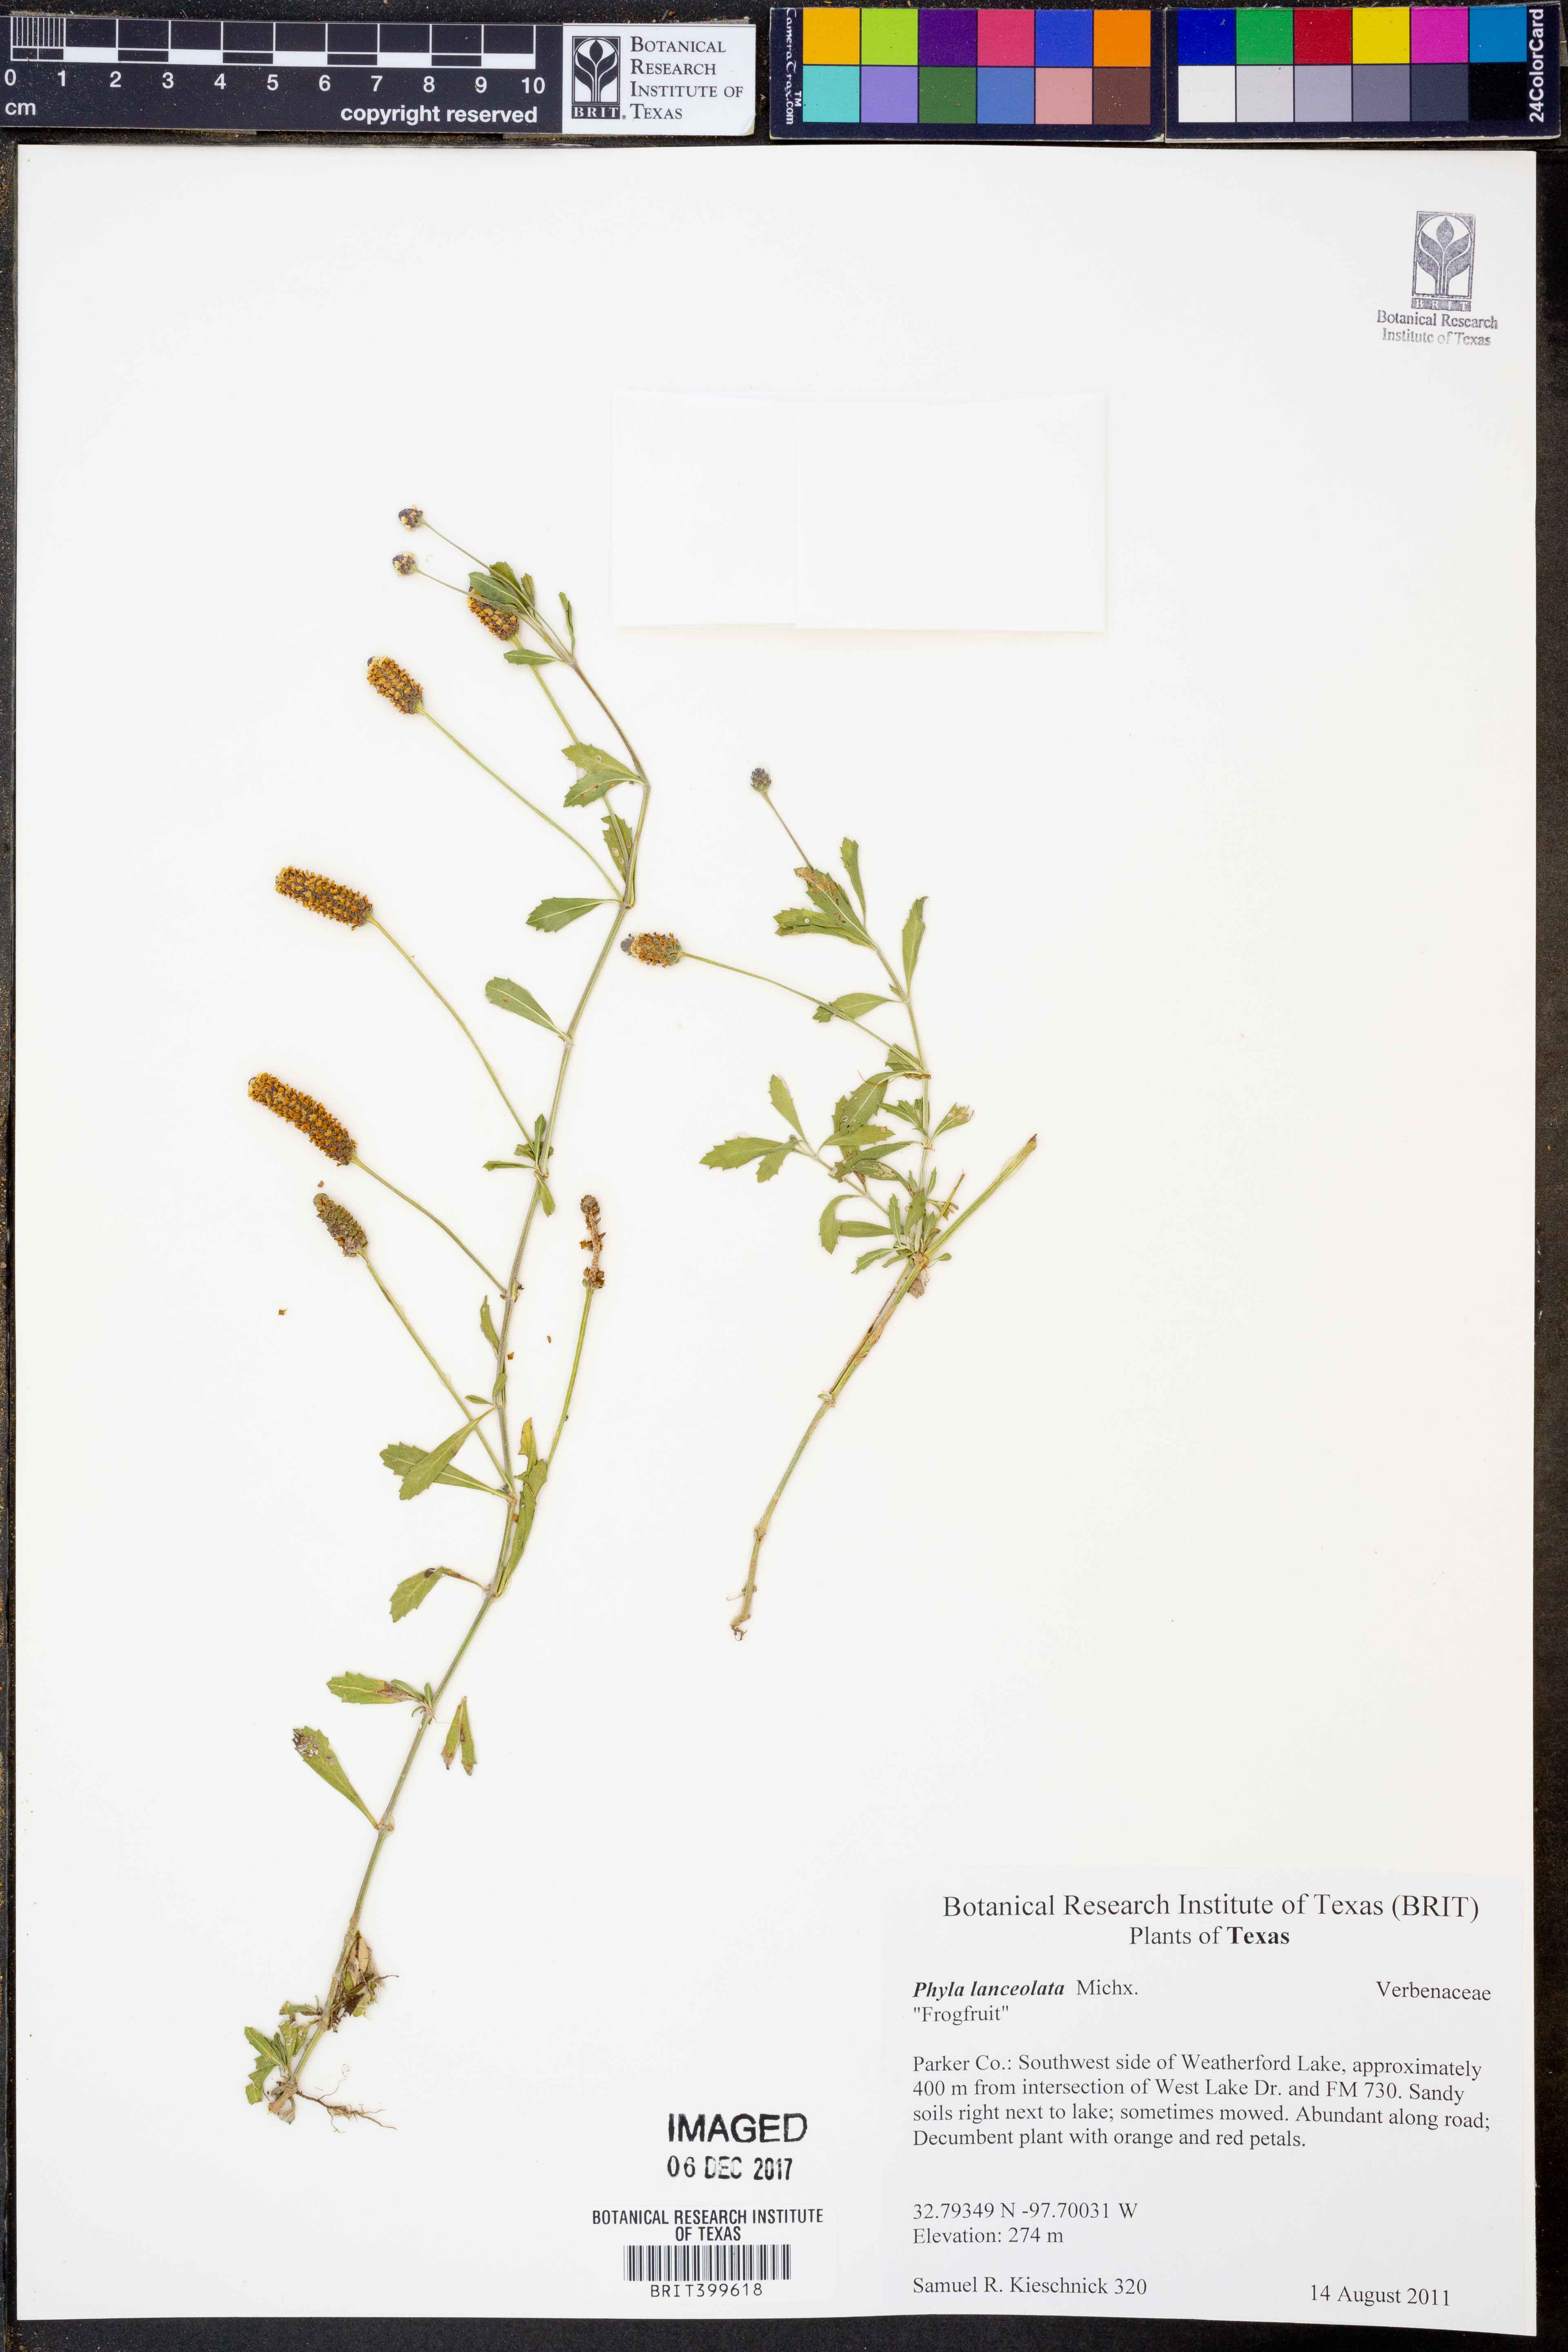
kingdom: Plantae
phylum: Tracheophyta
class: Magnoliopsida
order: Lamiales
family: Verbenaceae
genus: Phyla
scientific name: Phyla lanceolata
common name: Northern fogfruit
